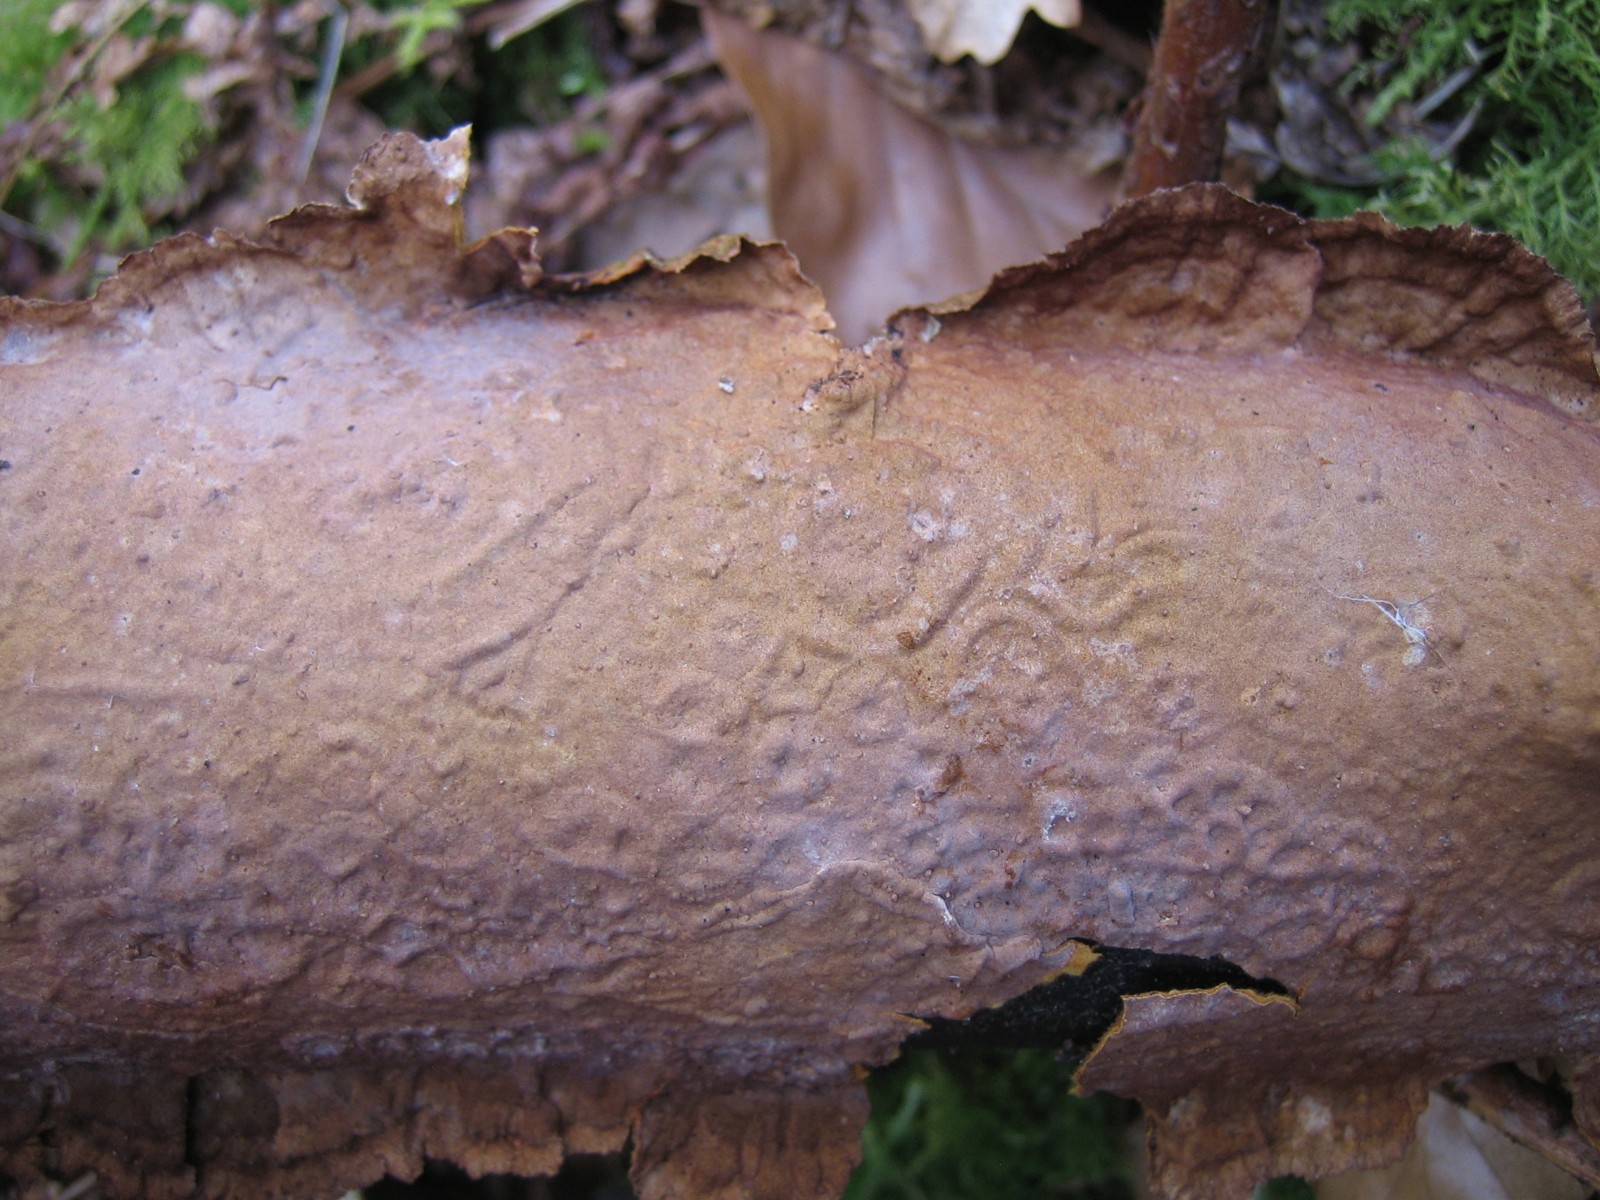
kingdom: Fungi
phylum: Basidiomycota
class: Agaricomycetes
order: Hymenochaetales
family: Hymenochaetaceae
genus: Hydnoporia
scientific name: Hydnoporia tabacina
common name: tobaksbrun ruslædersvamp
